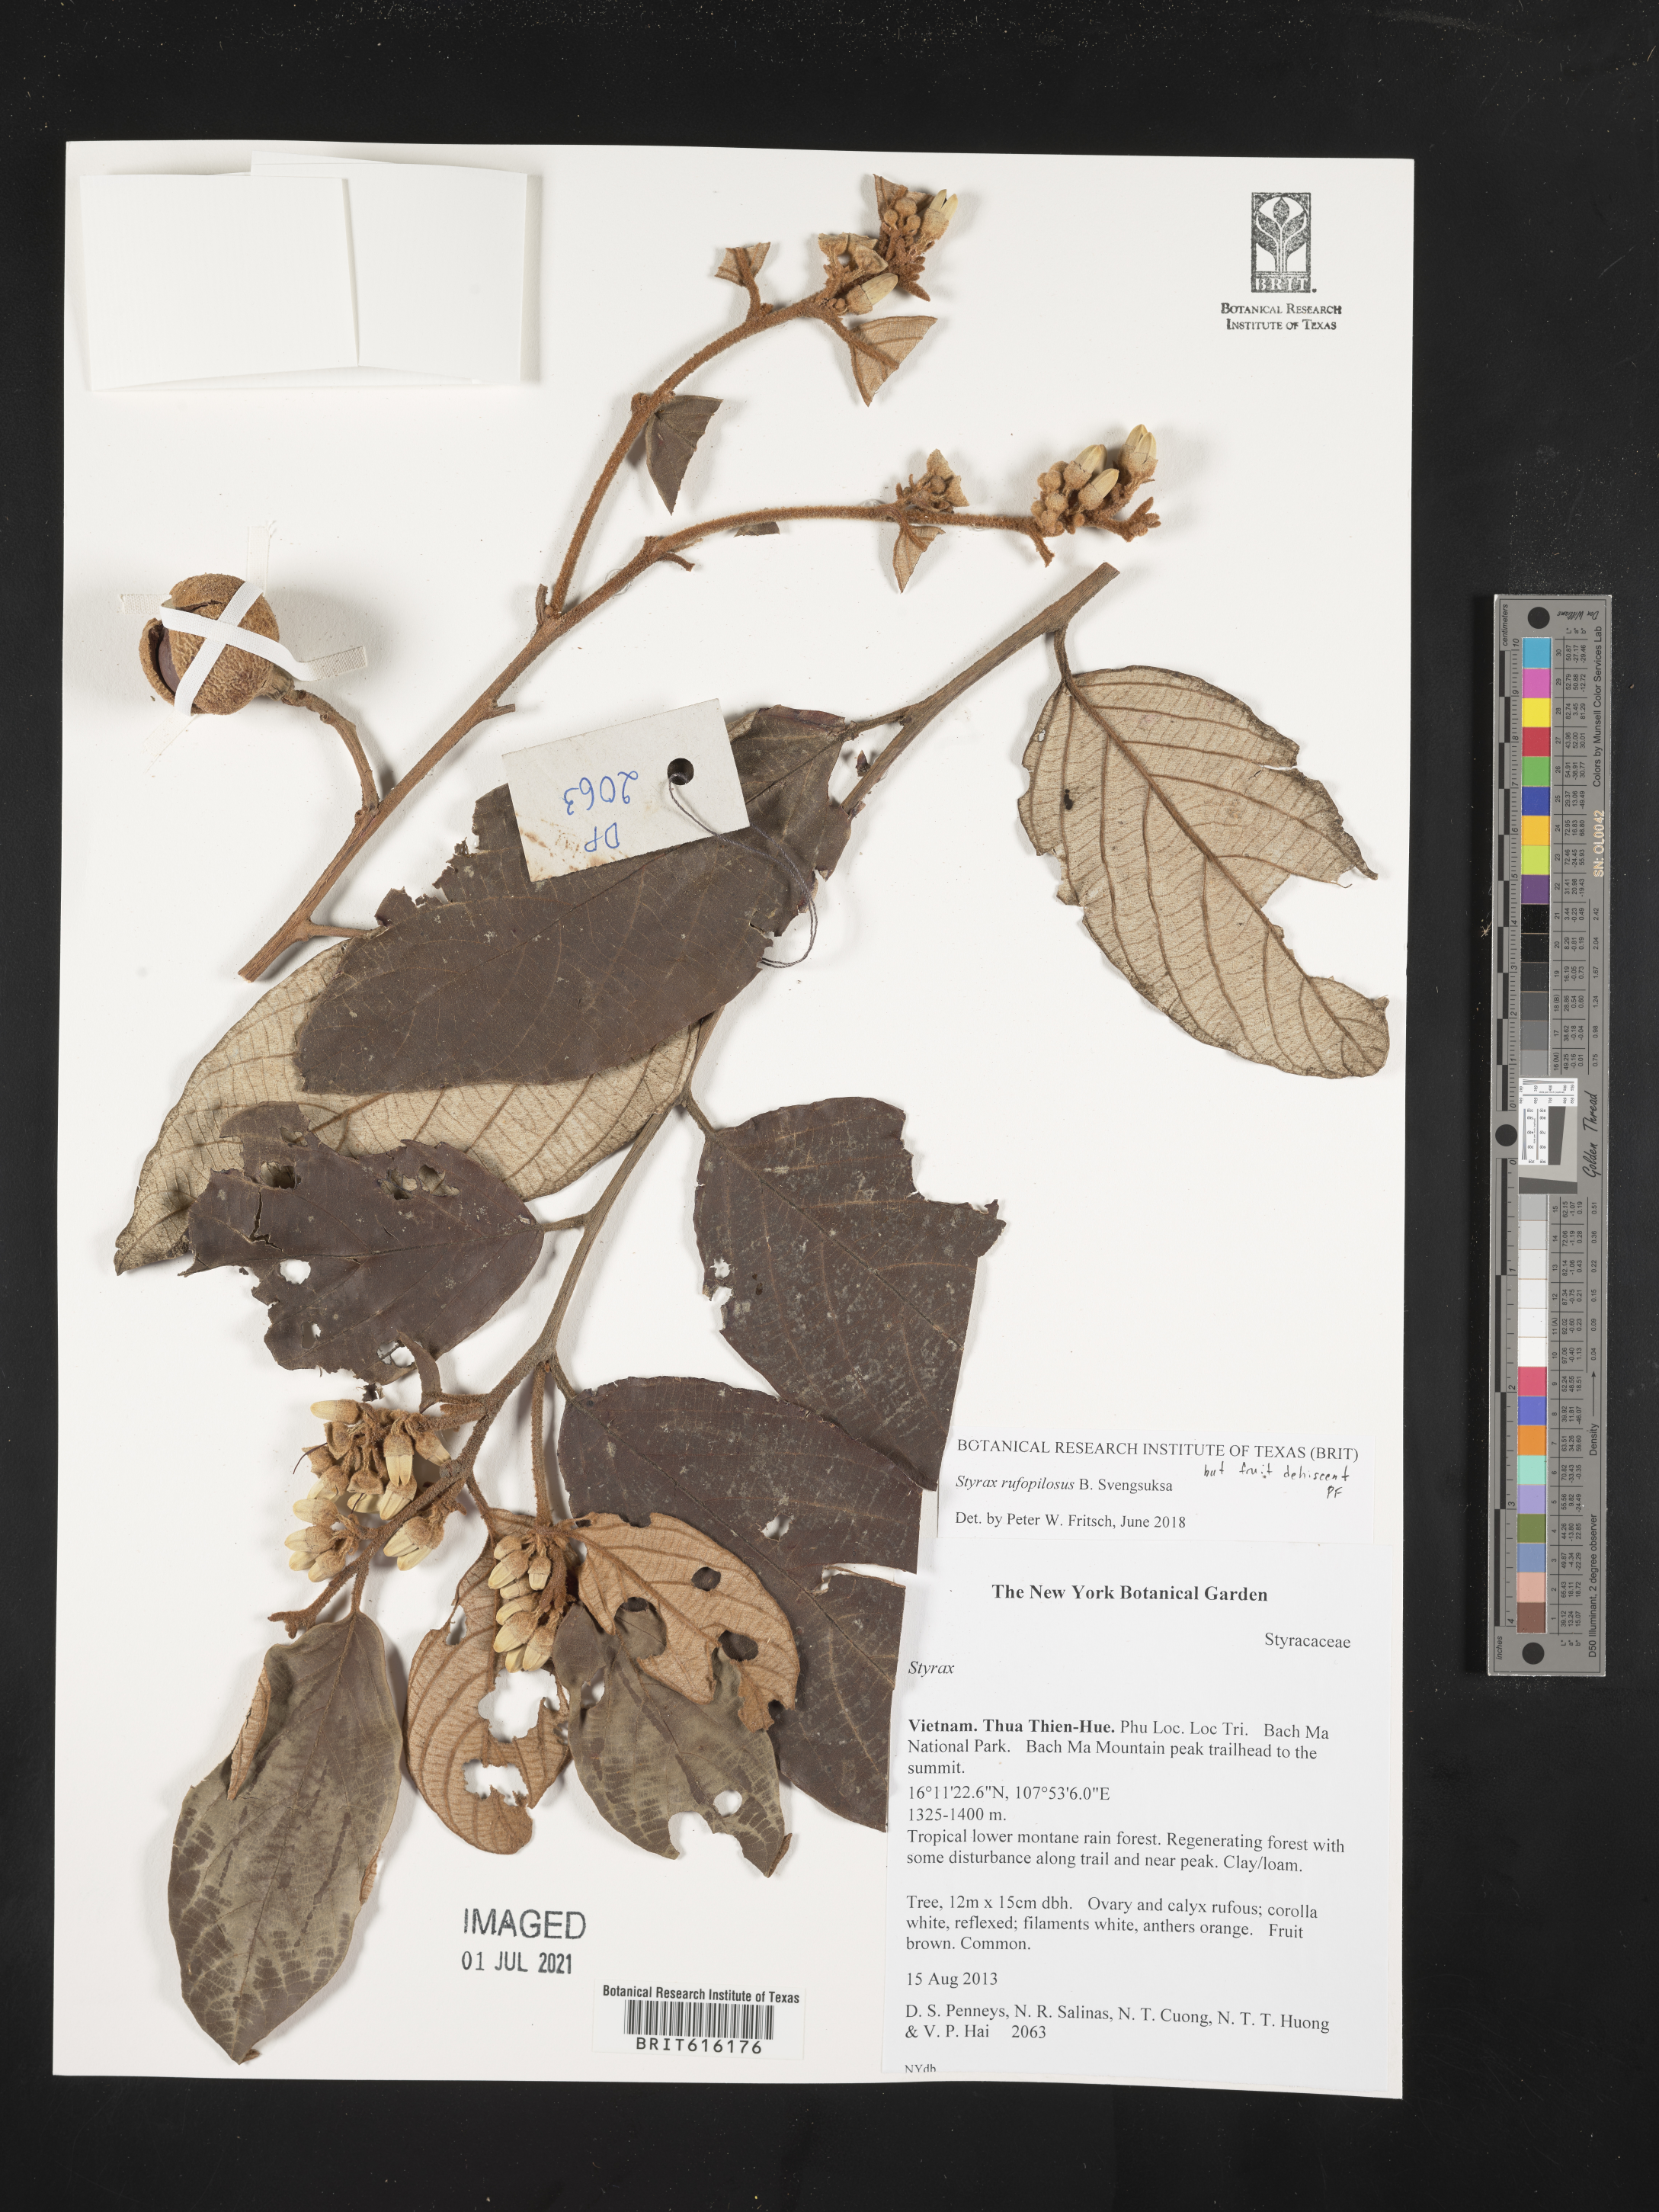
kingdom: Plantae
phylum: Tracheophyta
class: Magnoliopsida
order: Ericales
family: Styracaceae
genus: Styrax
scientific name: Styrax rufopilosus
